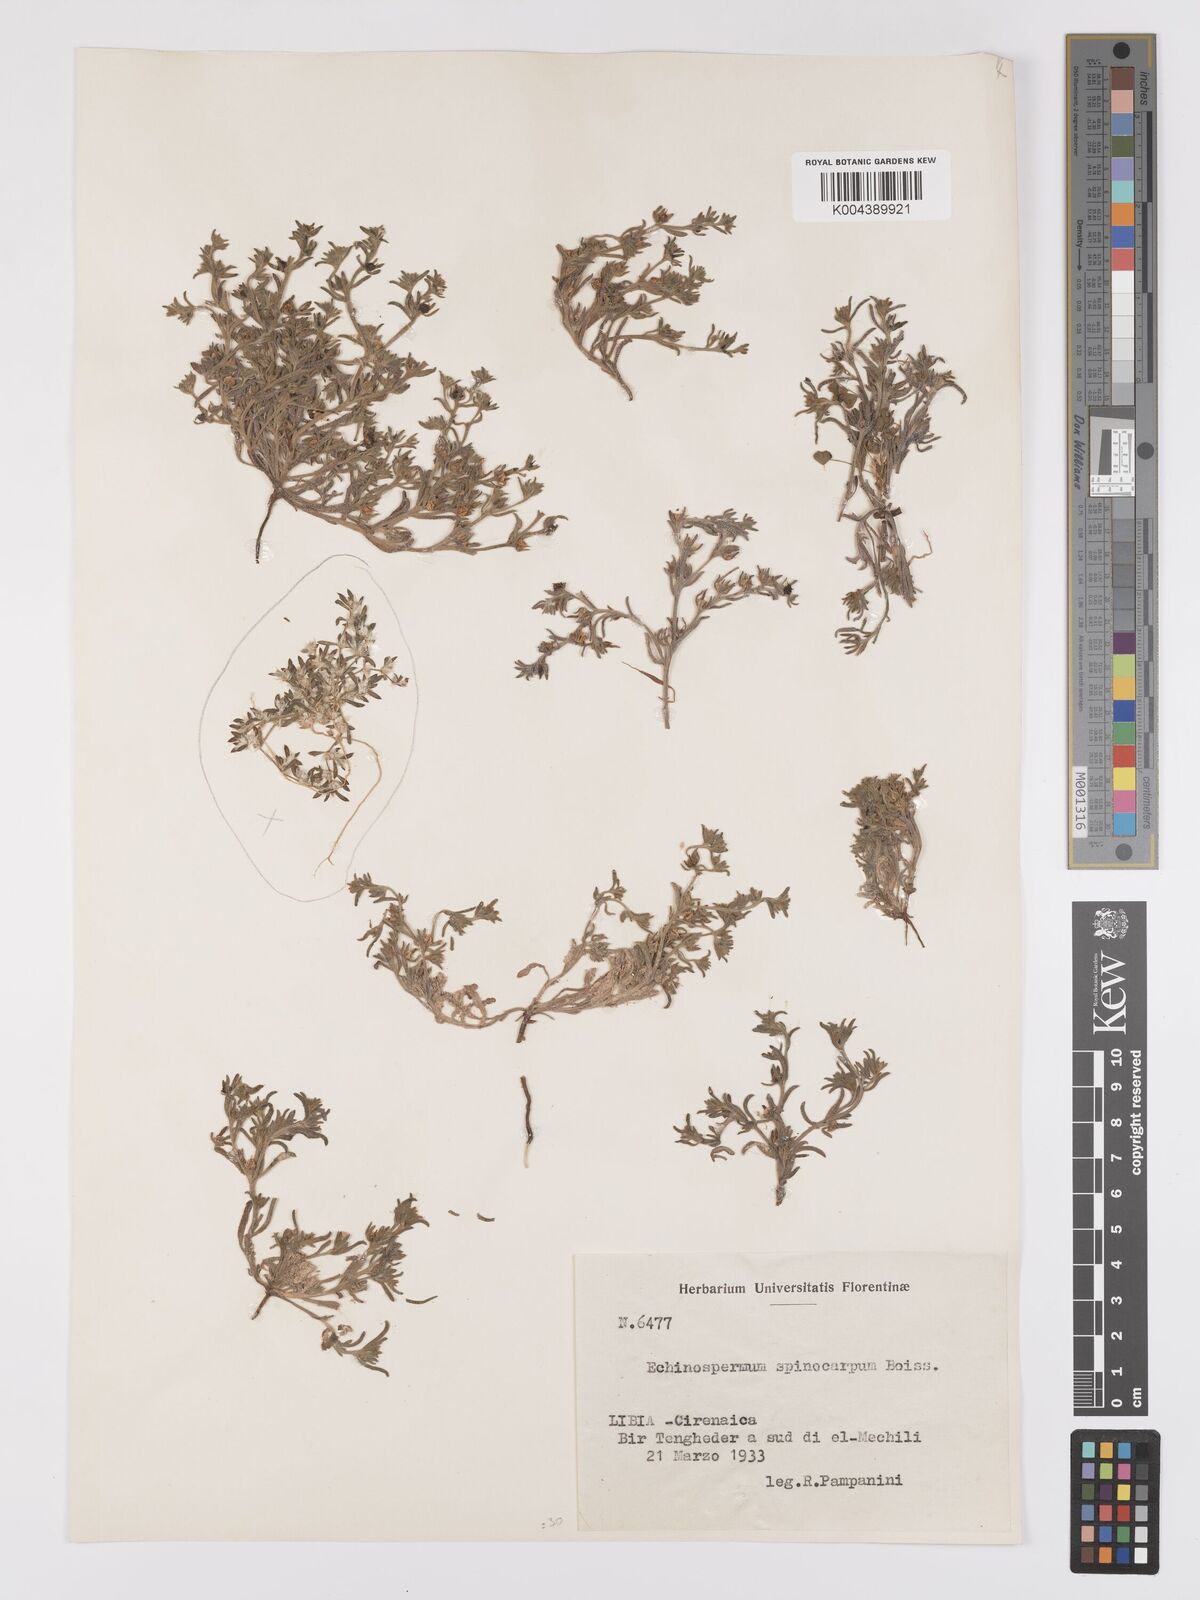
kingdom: Plantae
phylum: Tracheophyta
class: Magnoliopsida
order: Boraginales
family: Boraginaceae
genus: Lappula
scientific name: Lappula spinocarpos
